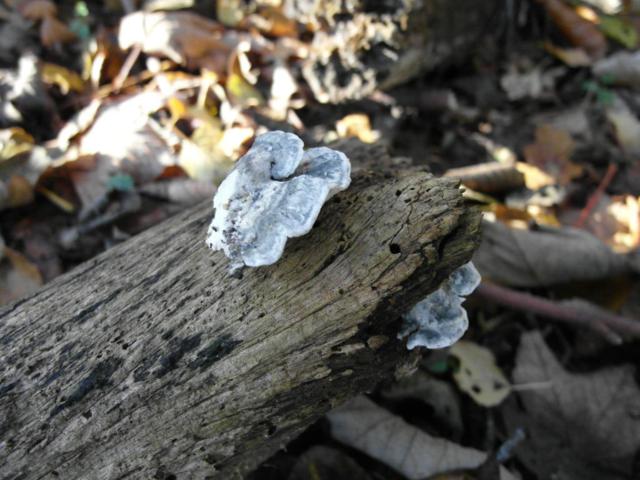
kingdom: Fungi
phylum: Basidiomycota
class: Agaricomycetes
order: Polyporales
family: Polyporaceae
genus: Cyanosporus
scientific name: Cyanosporus alni
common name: blegblå kødporesvamp
